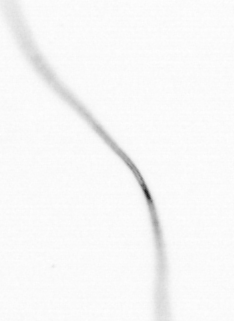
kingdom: Chromista
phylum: Ochrophyta
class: Bacillariophyceae
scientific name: Bacillariophyceae
